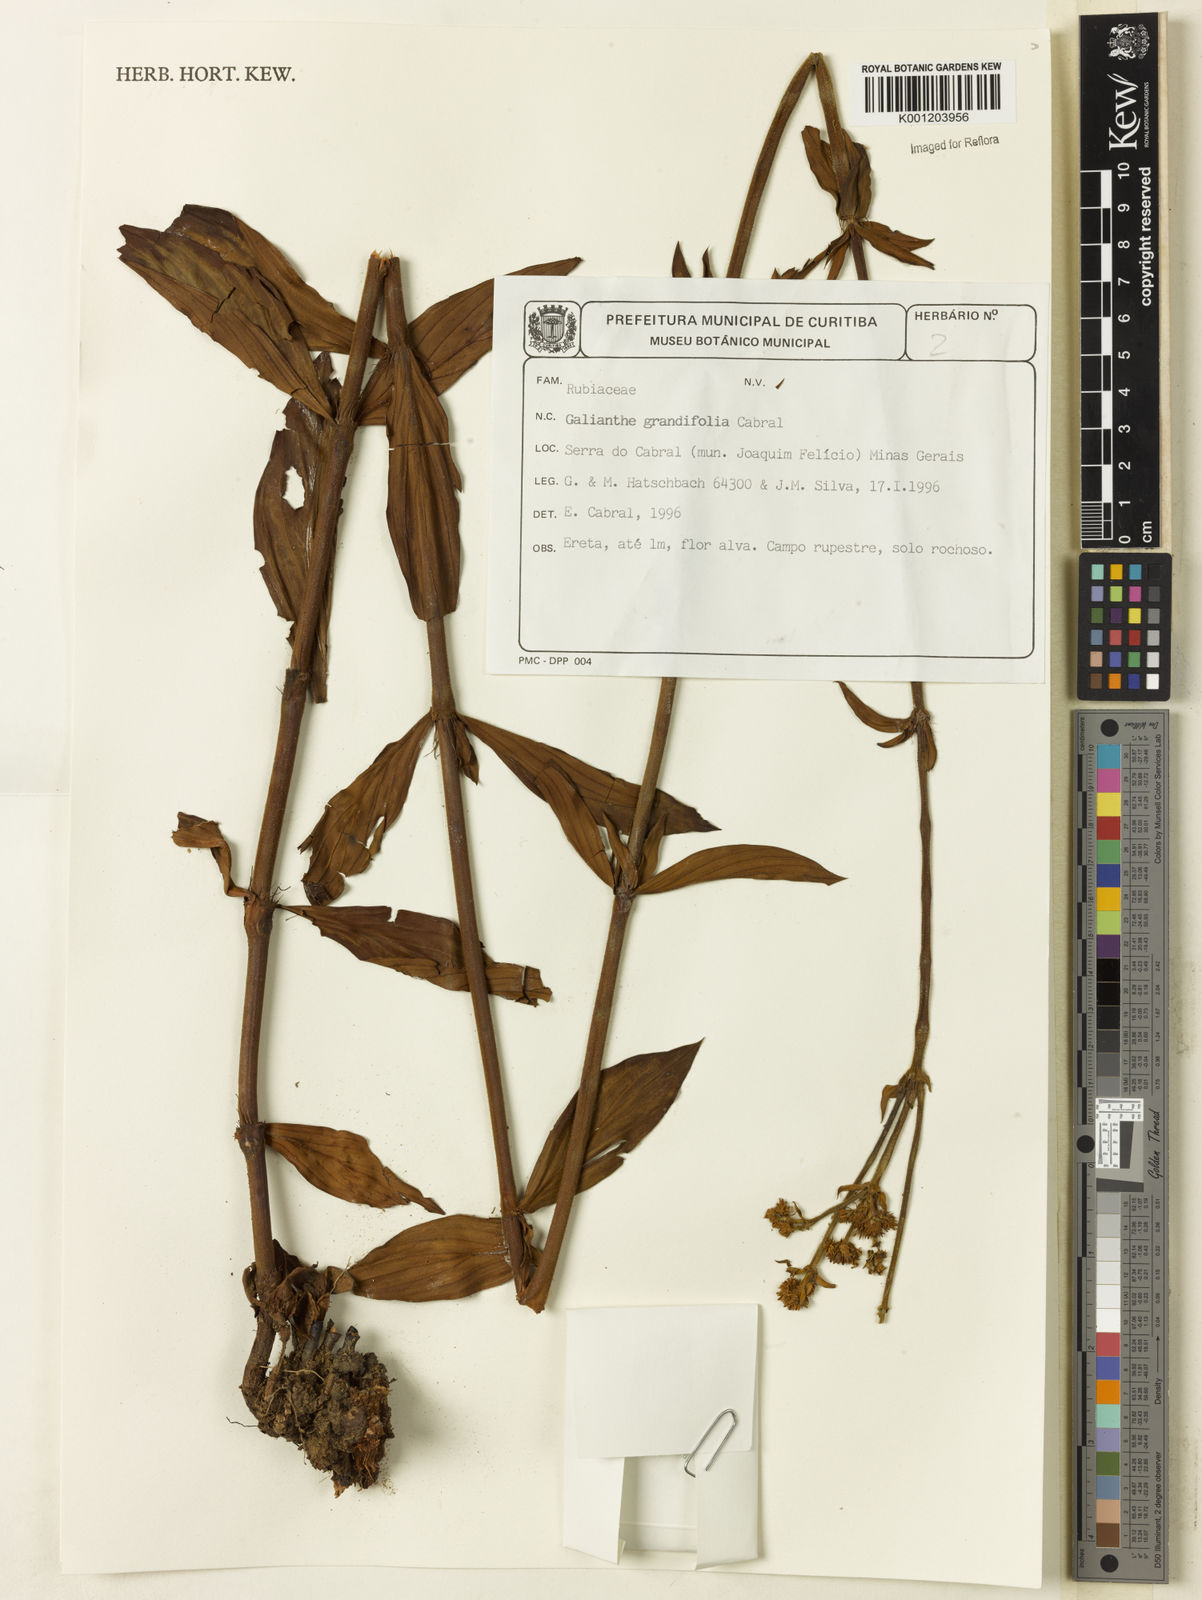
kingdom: Plantae
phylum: Tracheophyta
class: Magnoliopsida
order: Gentianales
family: Rubiaceae
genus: Galianthe
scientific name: Galianthe grandifolia
